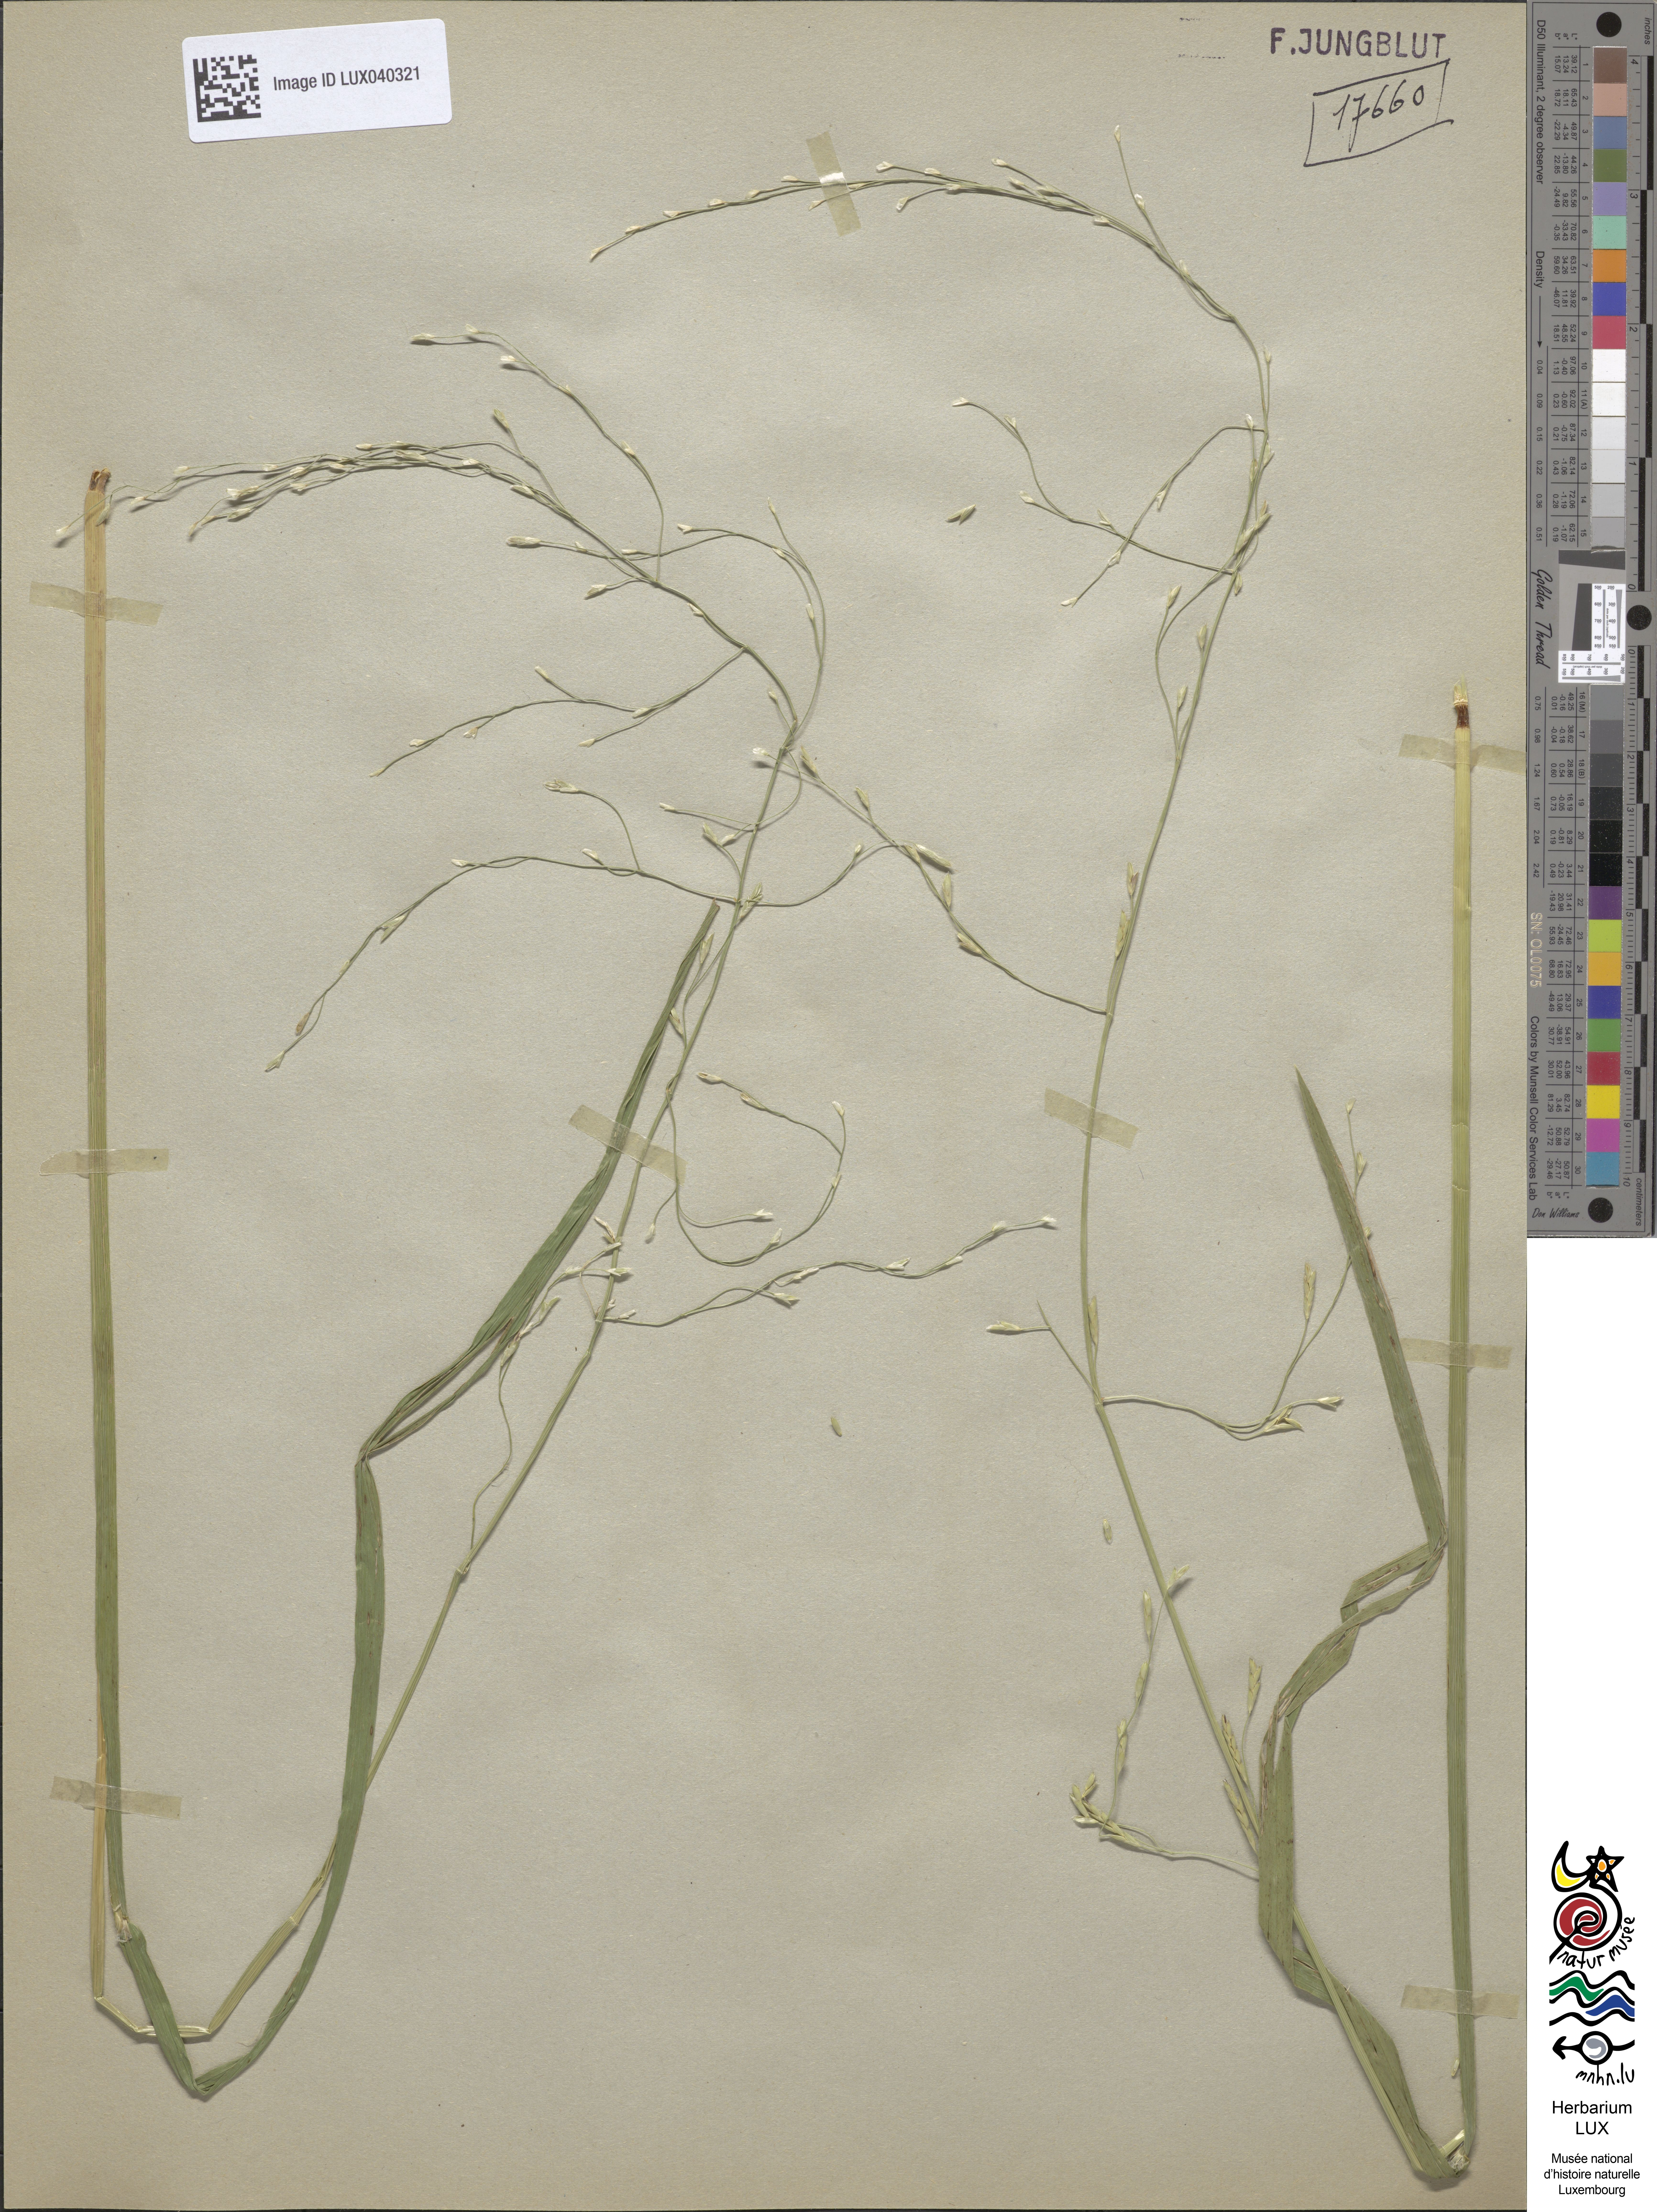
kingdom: Plantae
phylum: Tracheophyta
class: Liliopsida
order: Poales
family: Poaceae
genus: Glyceria
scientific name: Glyceria notata
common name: Plicate sweet-grass
